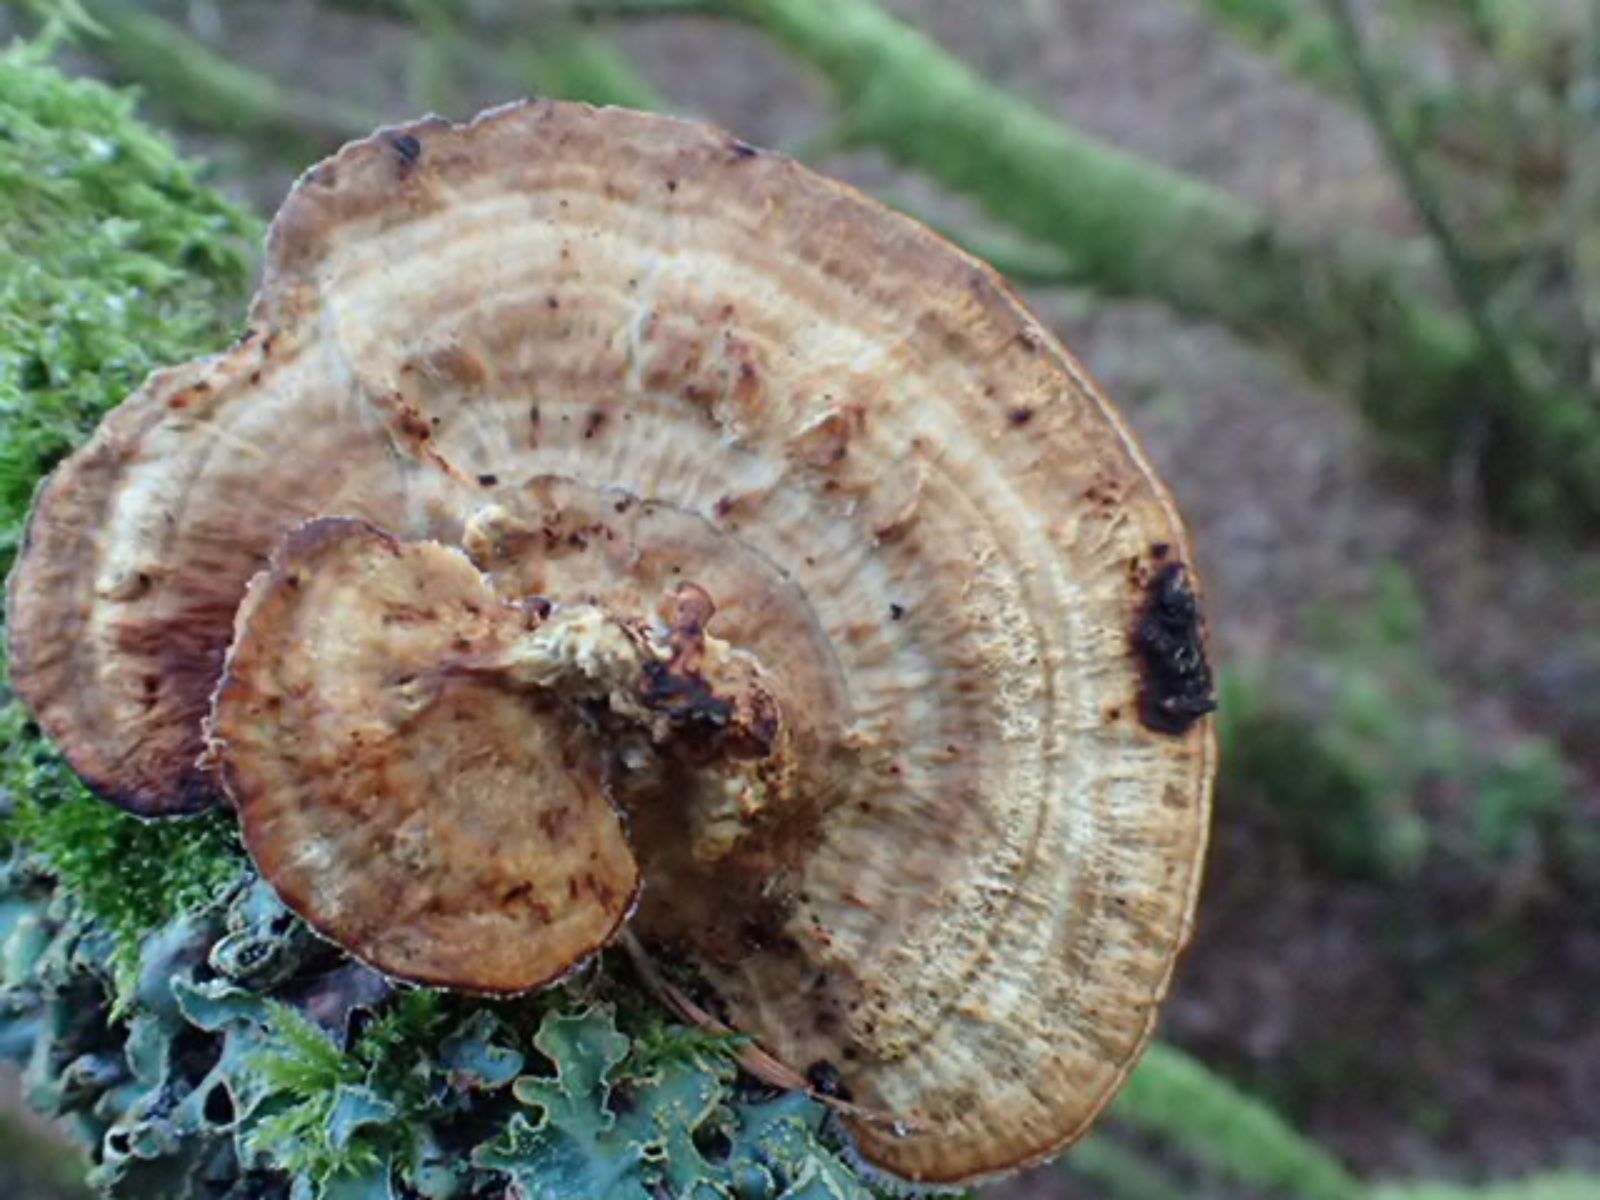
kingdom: Fungi
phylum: Basidiomycota
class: Agaricomycetes
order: Polyporales
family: Polyporaceae
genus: Daedaleopsis
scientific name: Daedaleopsis confragosa
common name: rødmende læderporesvamp
